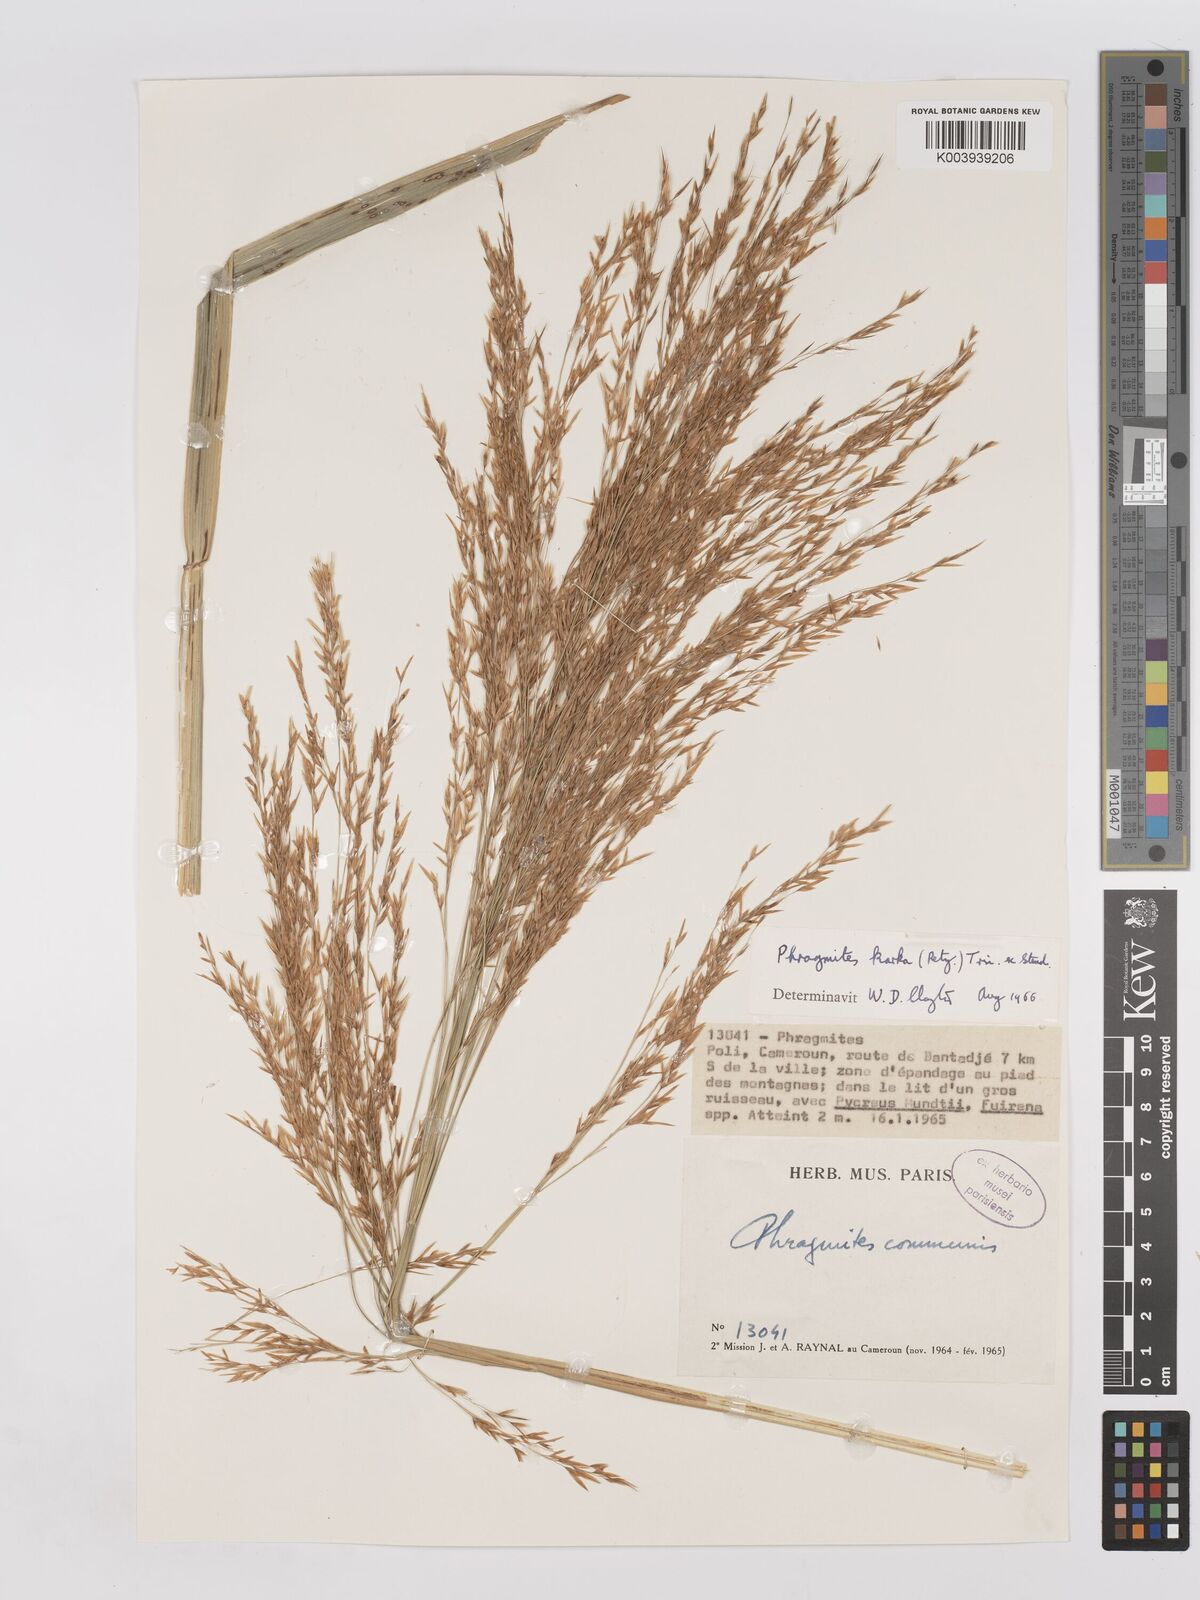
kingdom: Plantae
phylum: Tracheophyta
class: Liliopsida
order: Poales
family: Poaceae
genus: Phragmites
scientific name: Phragmites karka
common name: Tropical reed
